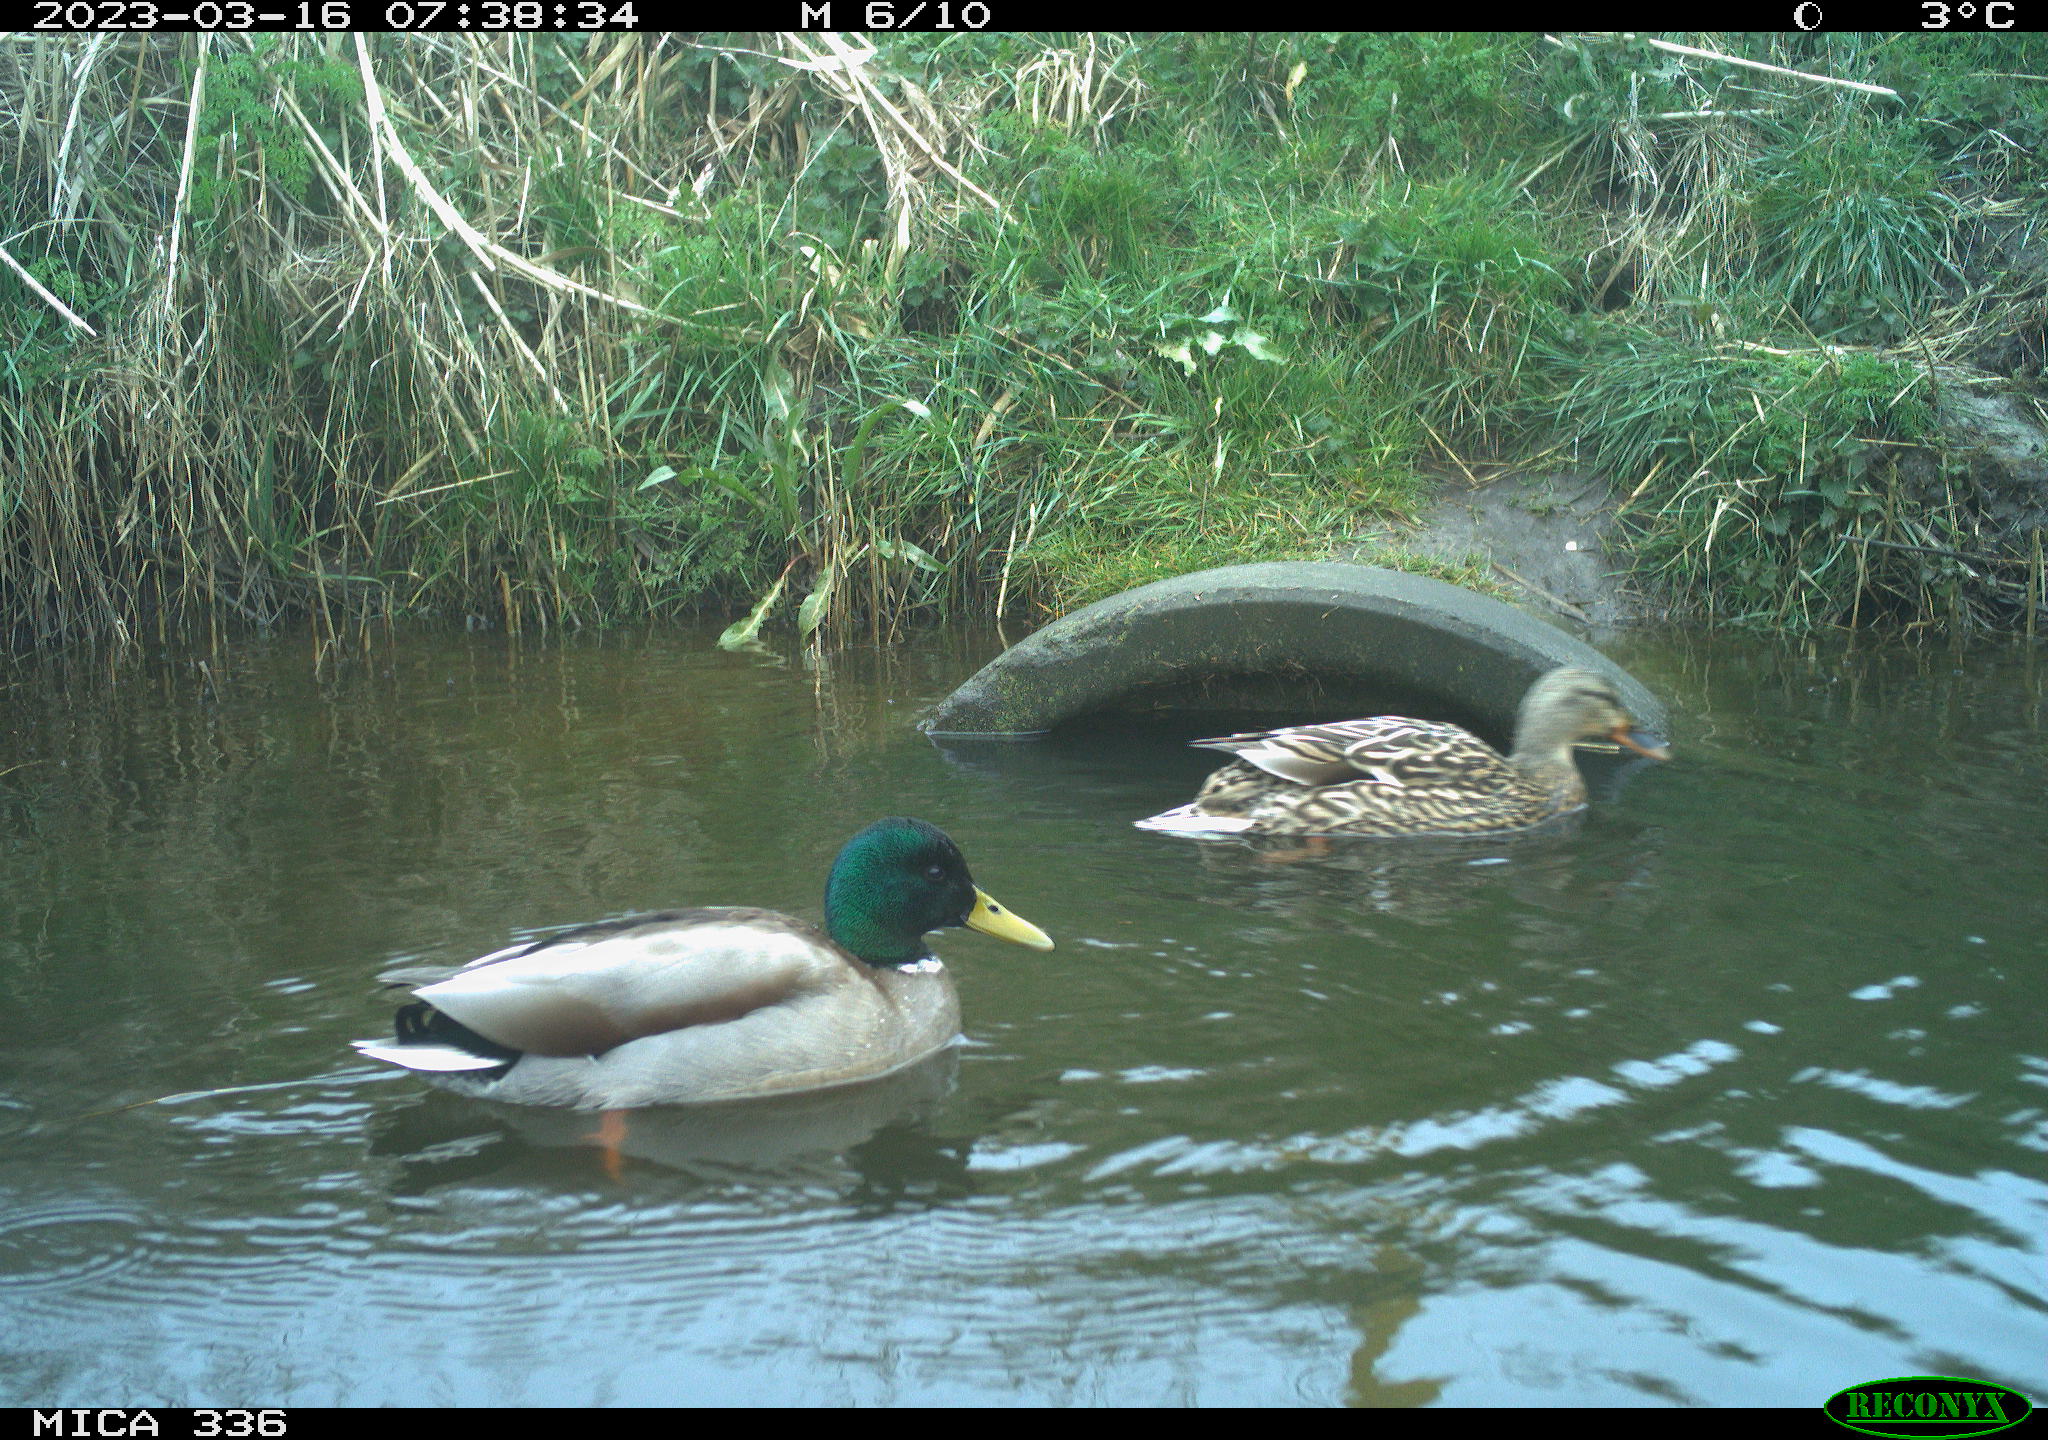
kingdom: Animalia
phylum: Chordata
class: Aves
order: Anseriformes
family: Anatidae
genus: Anas
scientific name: Anas
